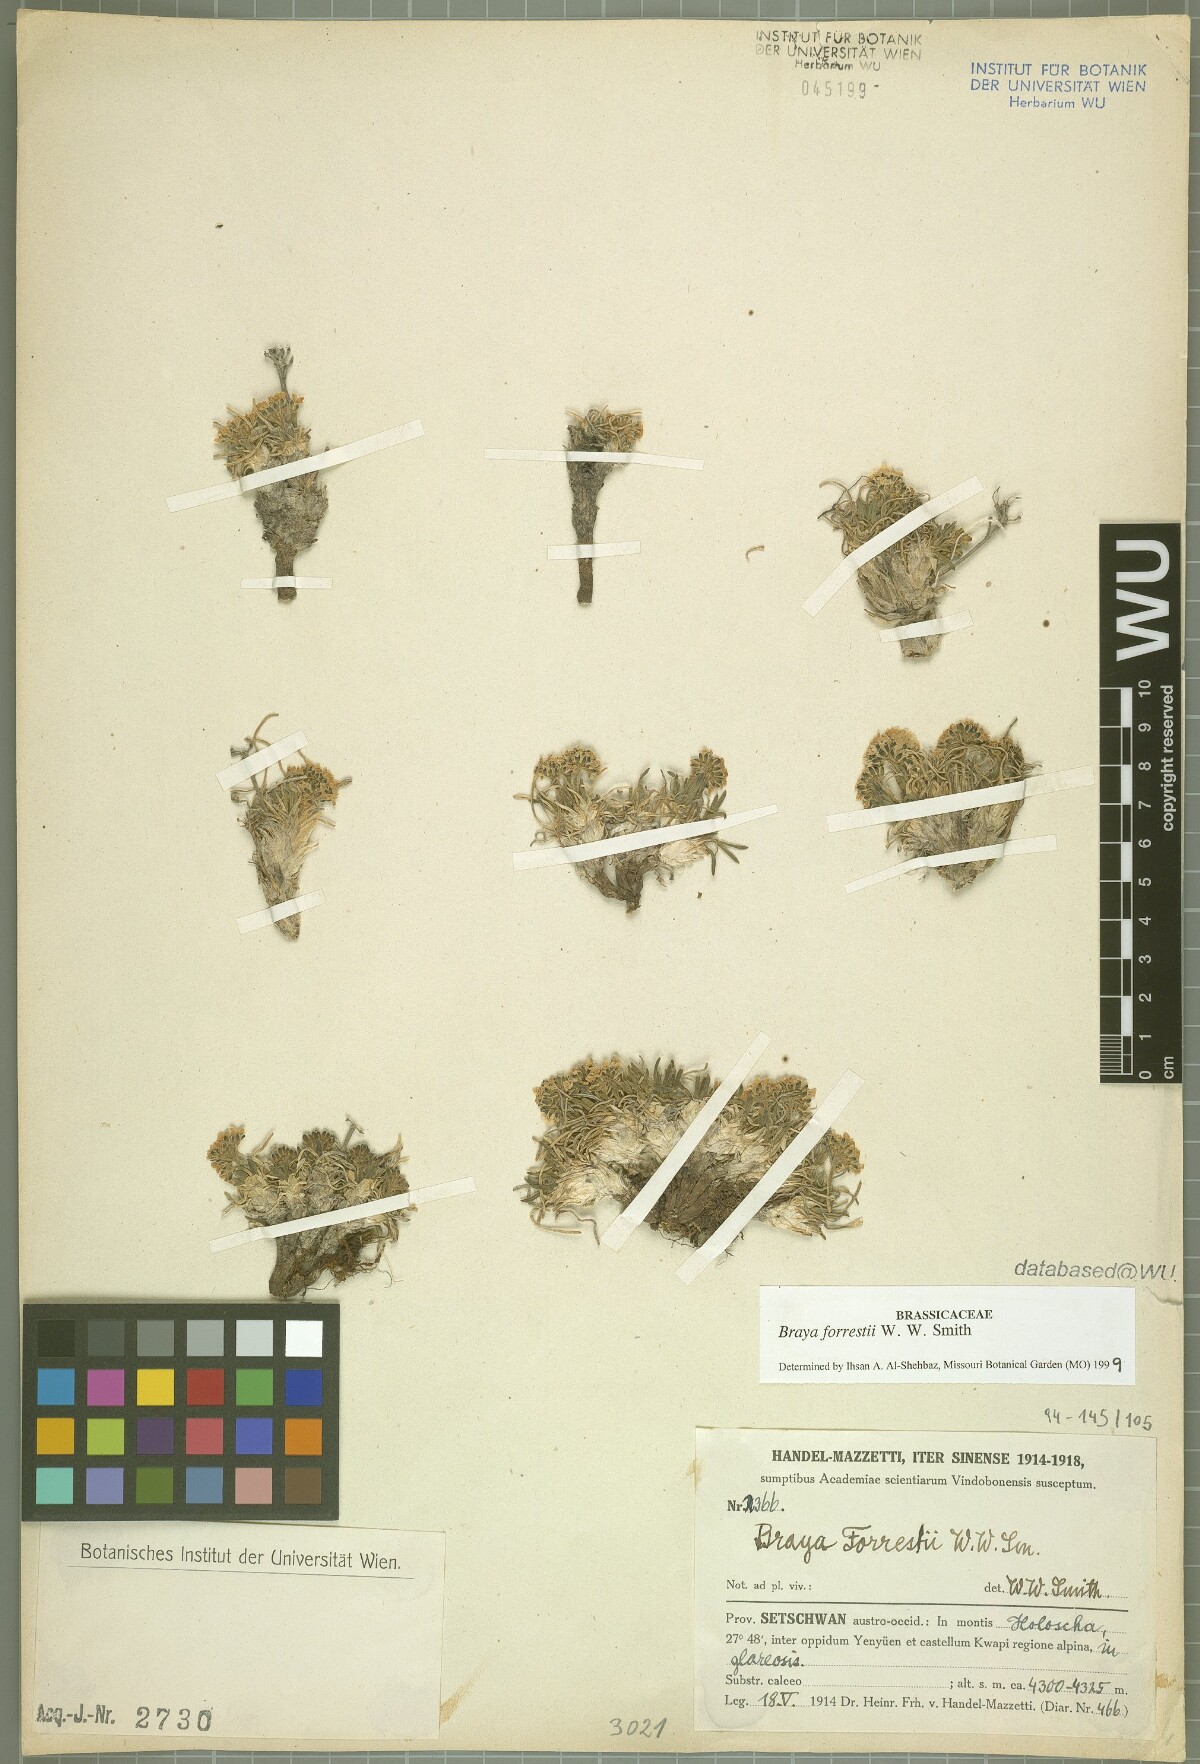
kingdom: Plantae
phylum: Tracheophyta
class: Magnoliopsida
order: Brassicales
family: Brassicaceae
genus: Metashangrilaia
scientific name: Metashangrilaia forrestii
